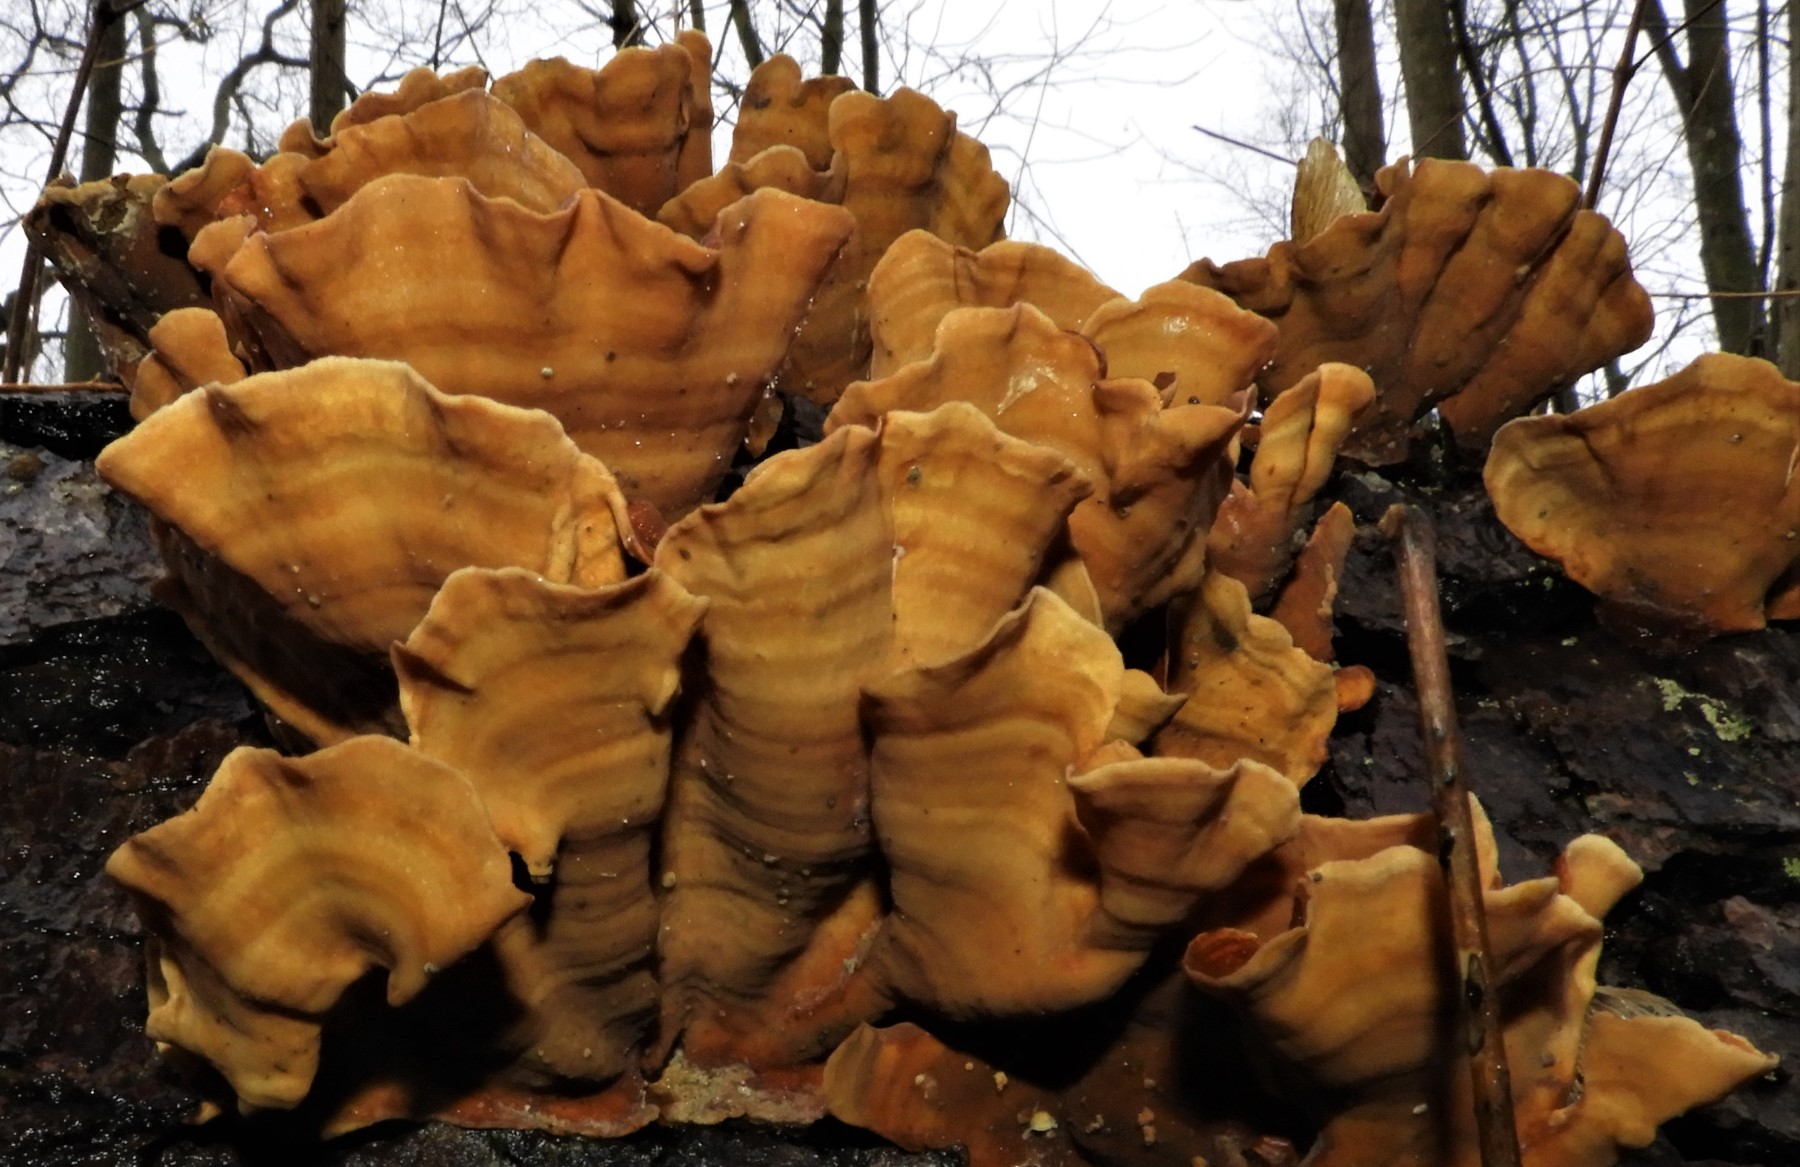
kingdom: Fungi
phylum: Basidiomycota
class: Agaricomycetes
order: Russulales
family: Stereaceae
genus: Stereum
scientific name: Stereum subtomentosum
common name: smuk lædersvamp
